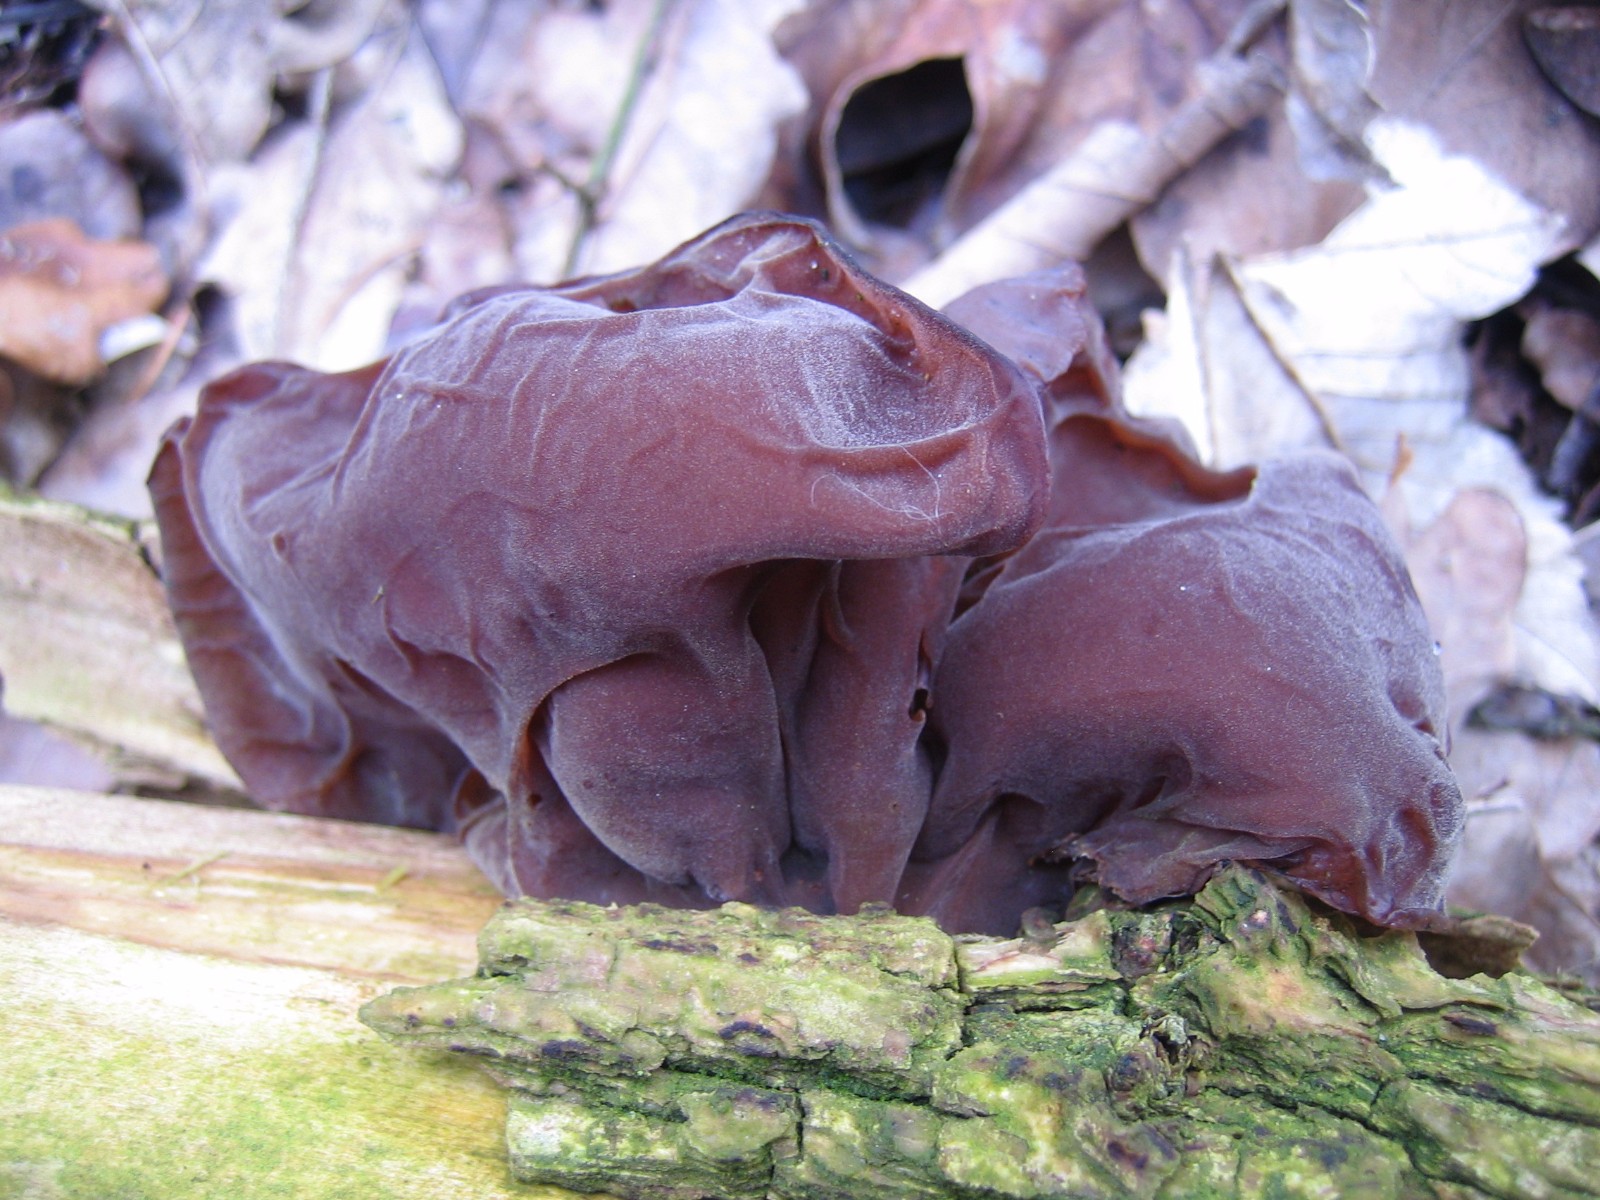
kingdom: Fungi
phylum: Basidiomycota
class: Agaricomycetes
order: Auriculariales
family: Auriculariaceae
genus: Auricularia
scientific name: Auricularia auricula-judae
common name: almindelig judasøre
